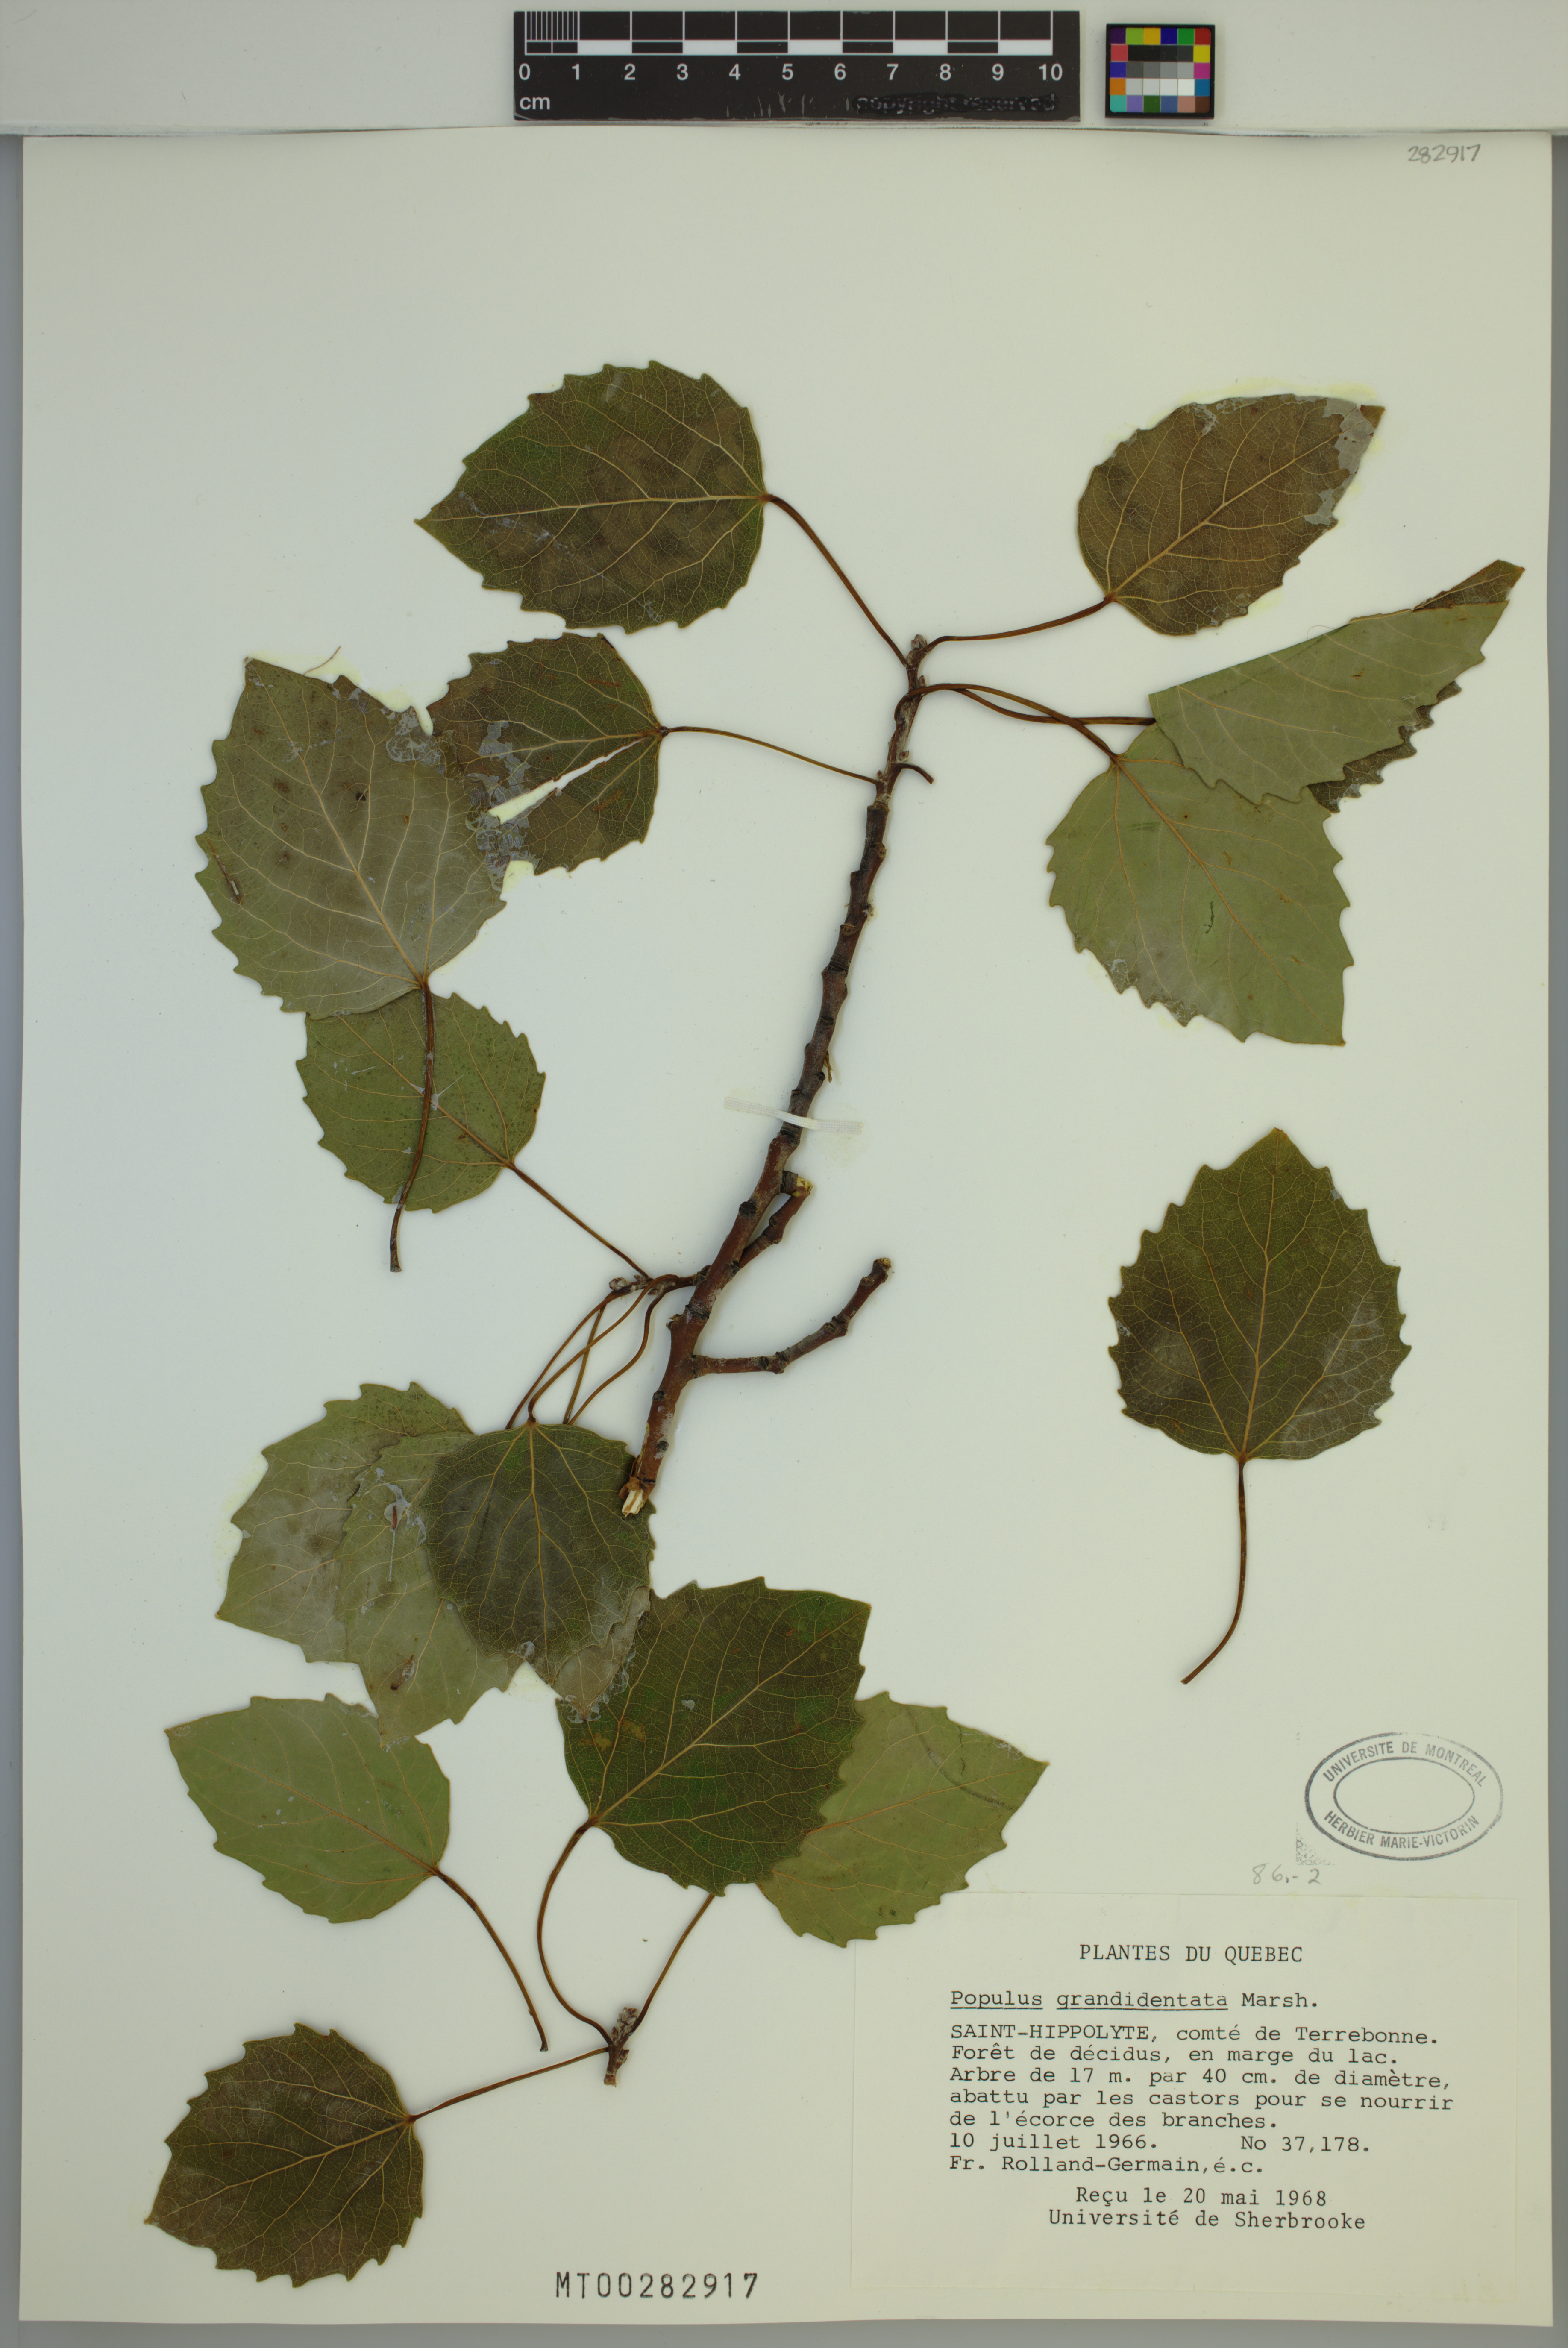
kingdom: Plantae
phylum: Tracheophyta
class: Magnoliopsida
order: Malpighiales
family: Salicaceae
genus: Populus
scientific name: Populus grandidentata
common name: Bigtooth aspen
